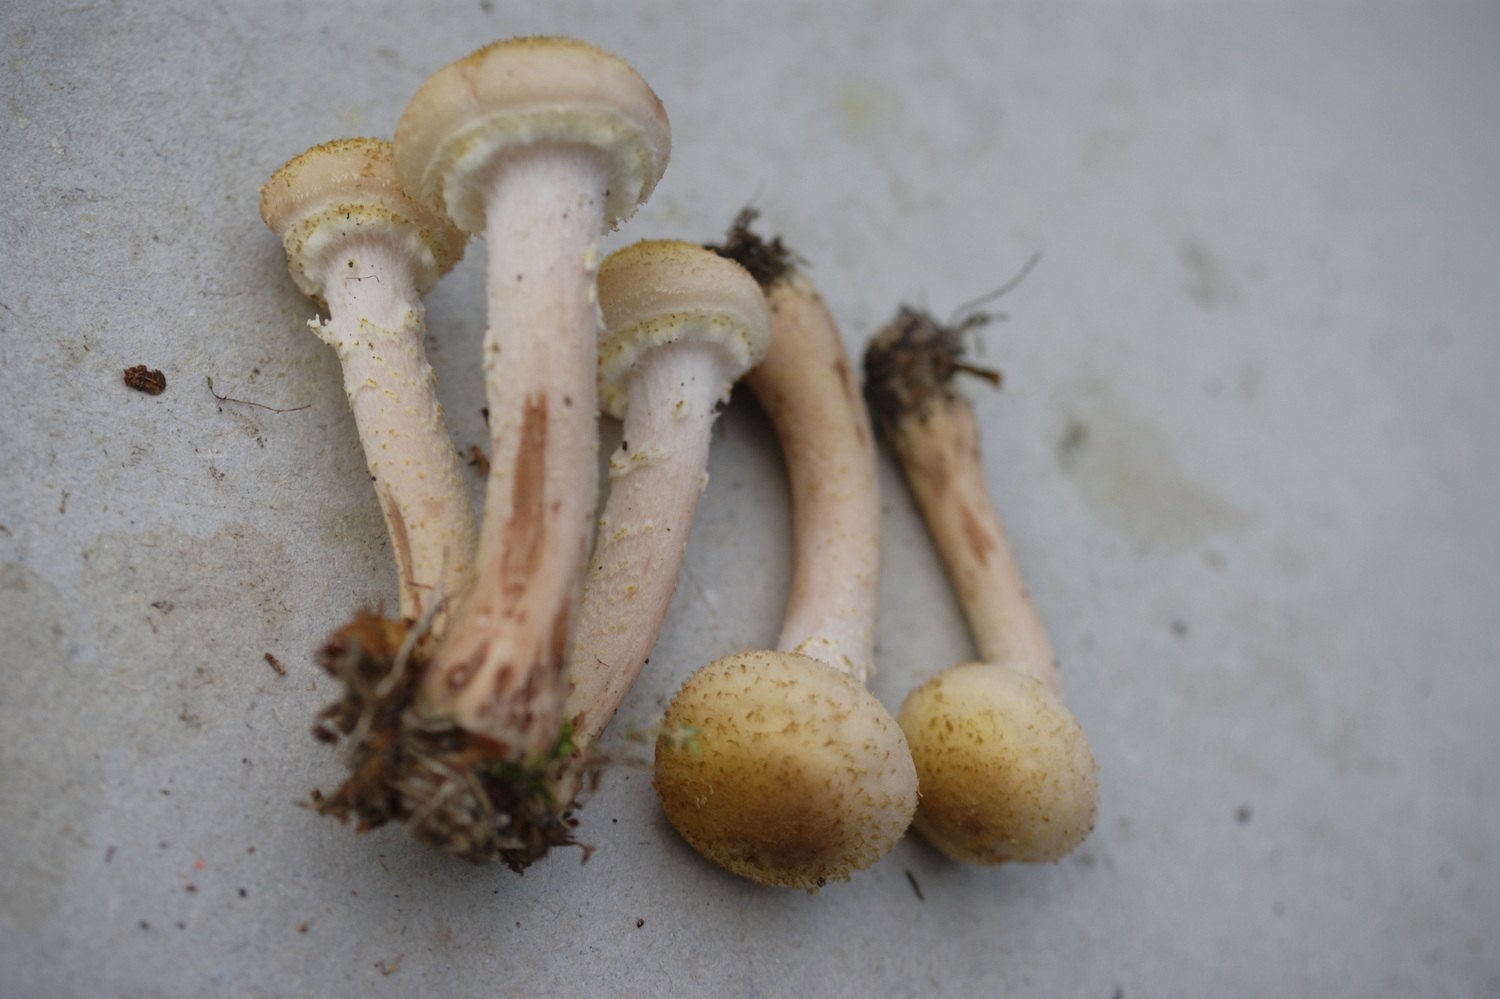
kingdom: Fungi
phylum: Basidiomycota
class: Agaricomycetes
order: Agaricales
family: Physalacriaceae
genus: Armillaria
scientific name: Armillaria borealis
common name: nordlig honningsvamp
